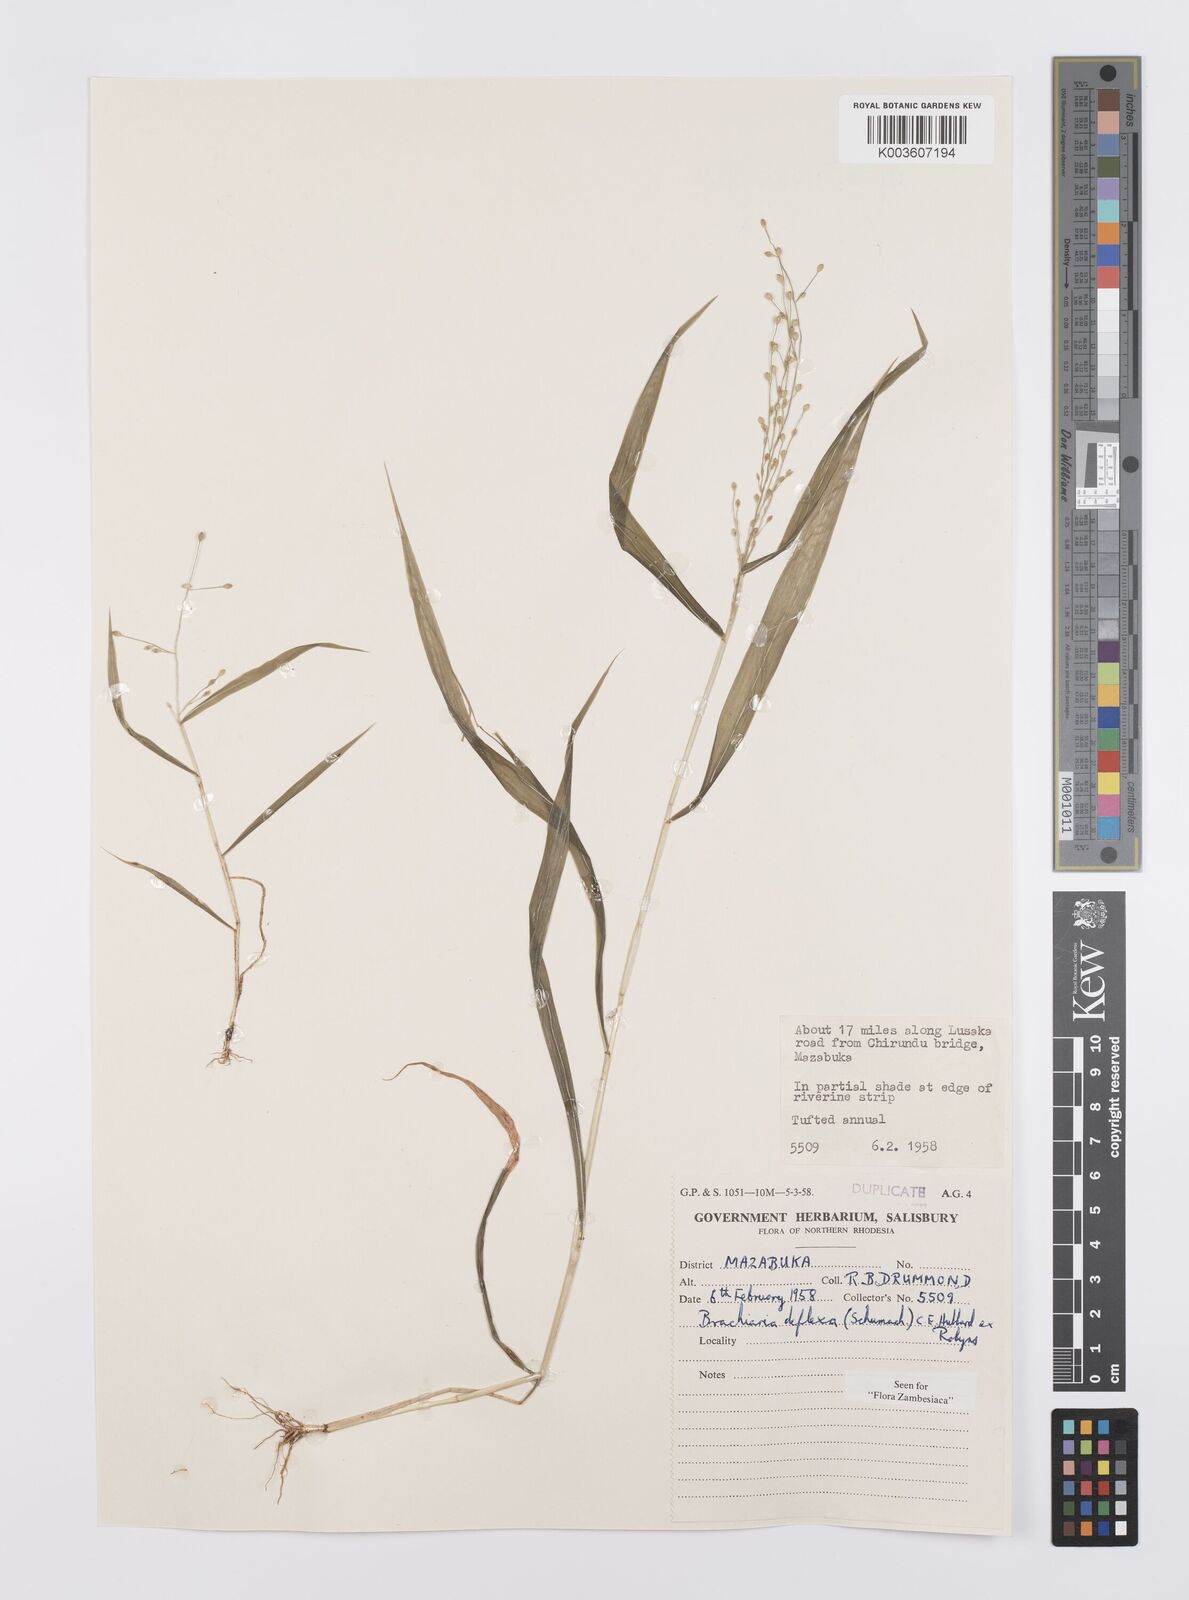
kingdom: Plantae
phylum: Tracheophyta
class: Liliopsida
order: Poales
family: Poaceae
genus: Urochloa
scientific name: Urochloa deflexa
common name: Guinea millet
